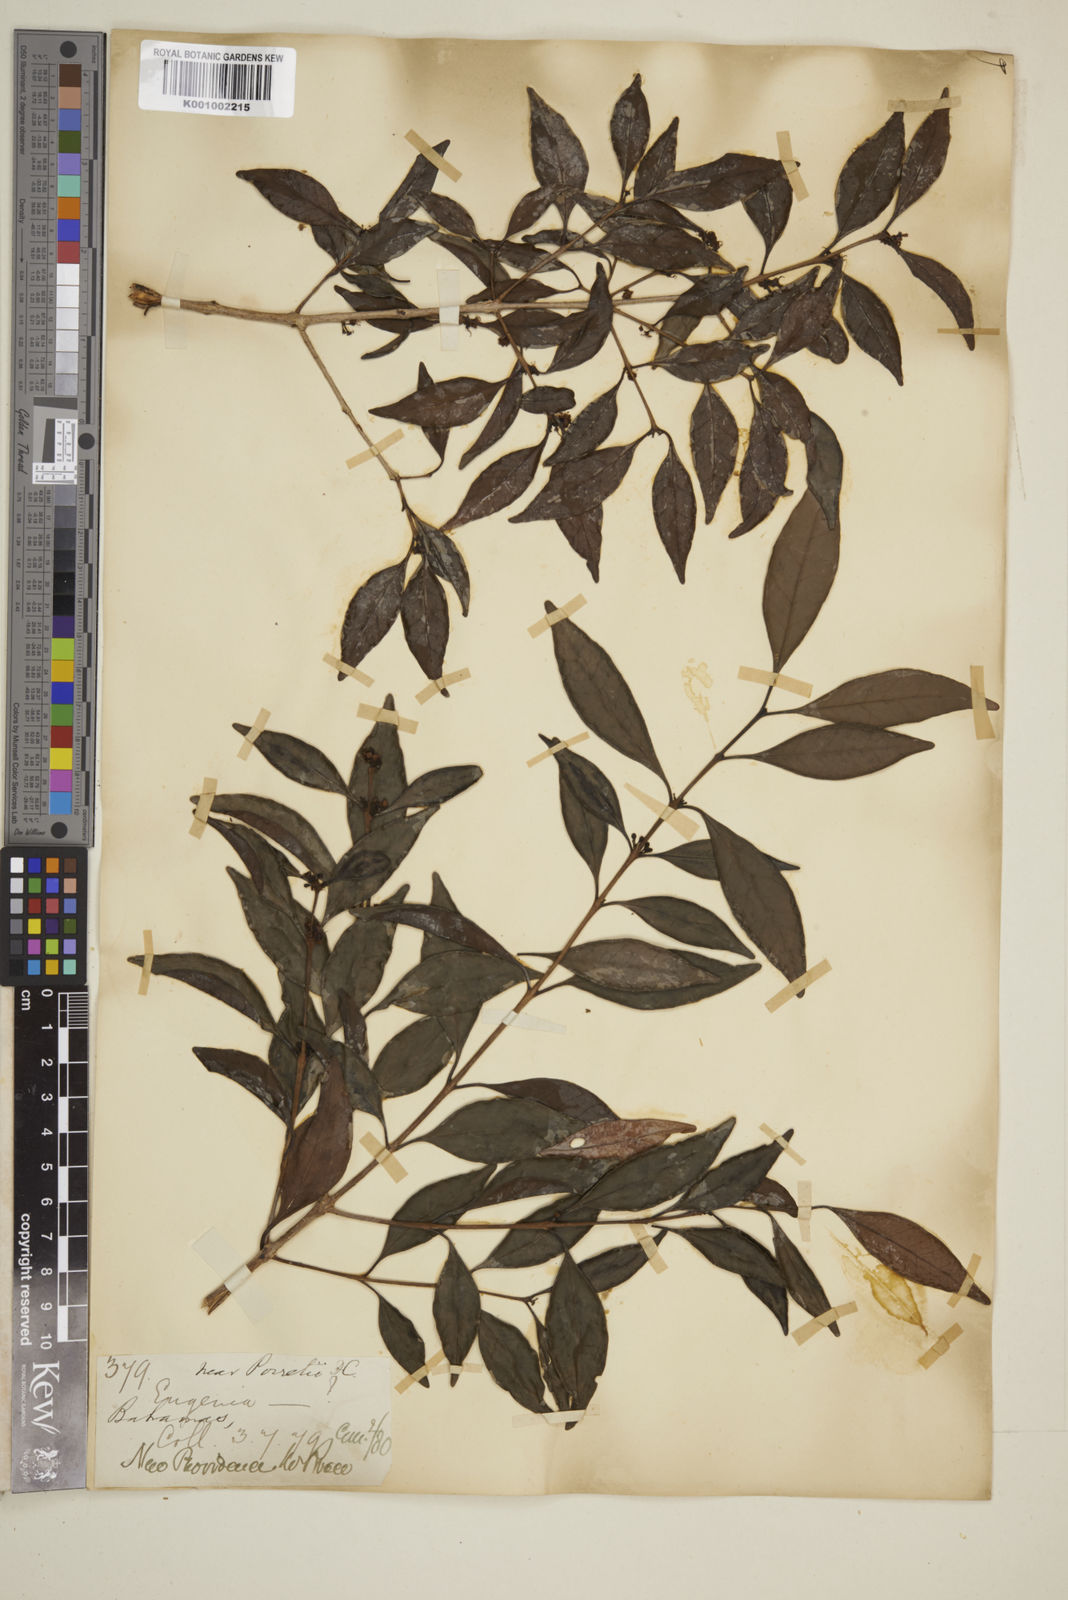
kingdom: Plantae
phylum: Tracheophyta
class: Magnoliopsida
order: Myrtales
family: Myrtaceae
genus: Eugenia
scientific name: Eugenia axillaris
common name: Choaky berry
